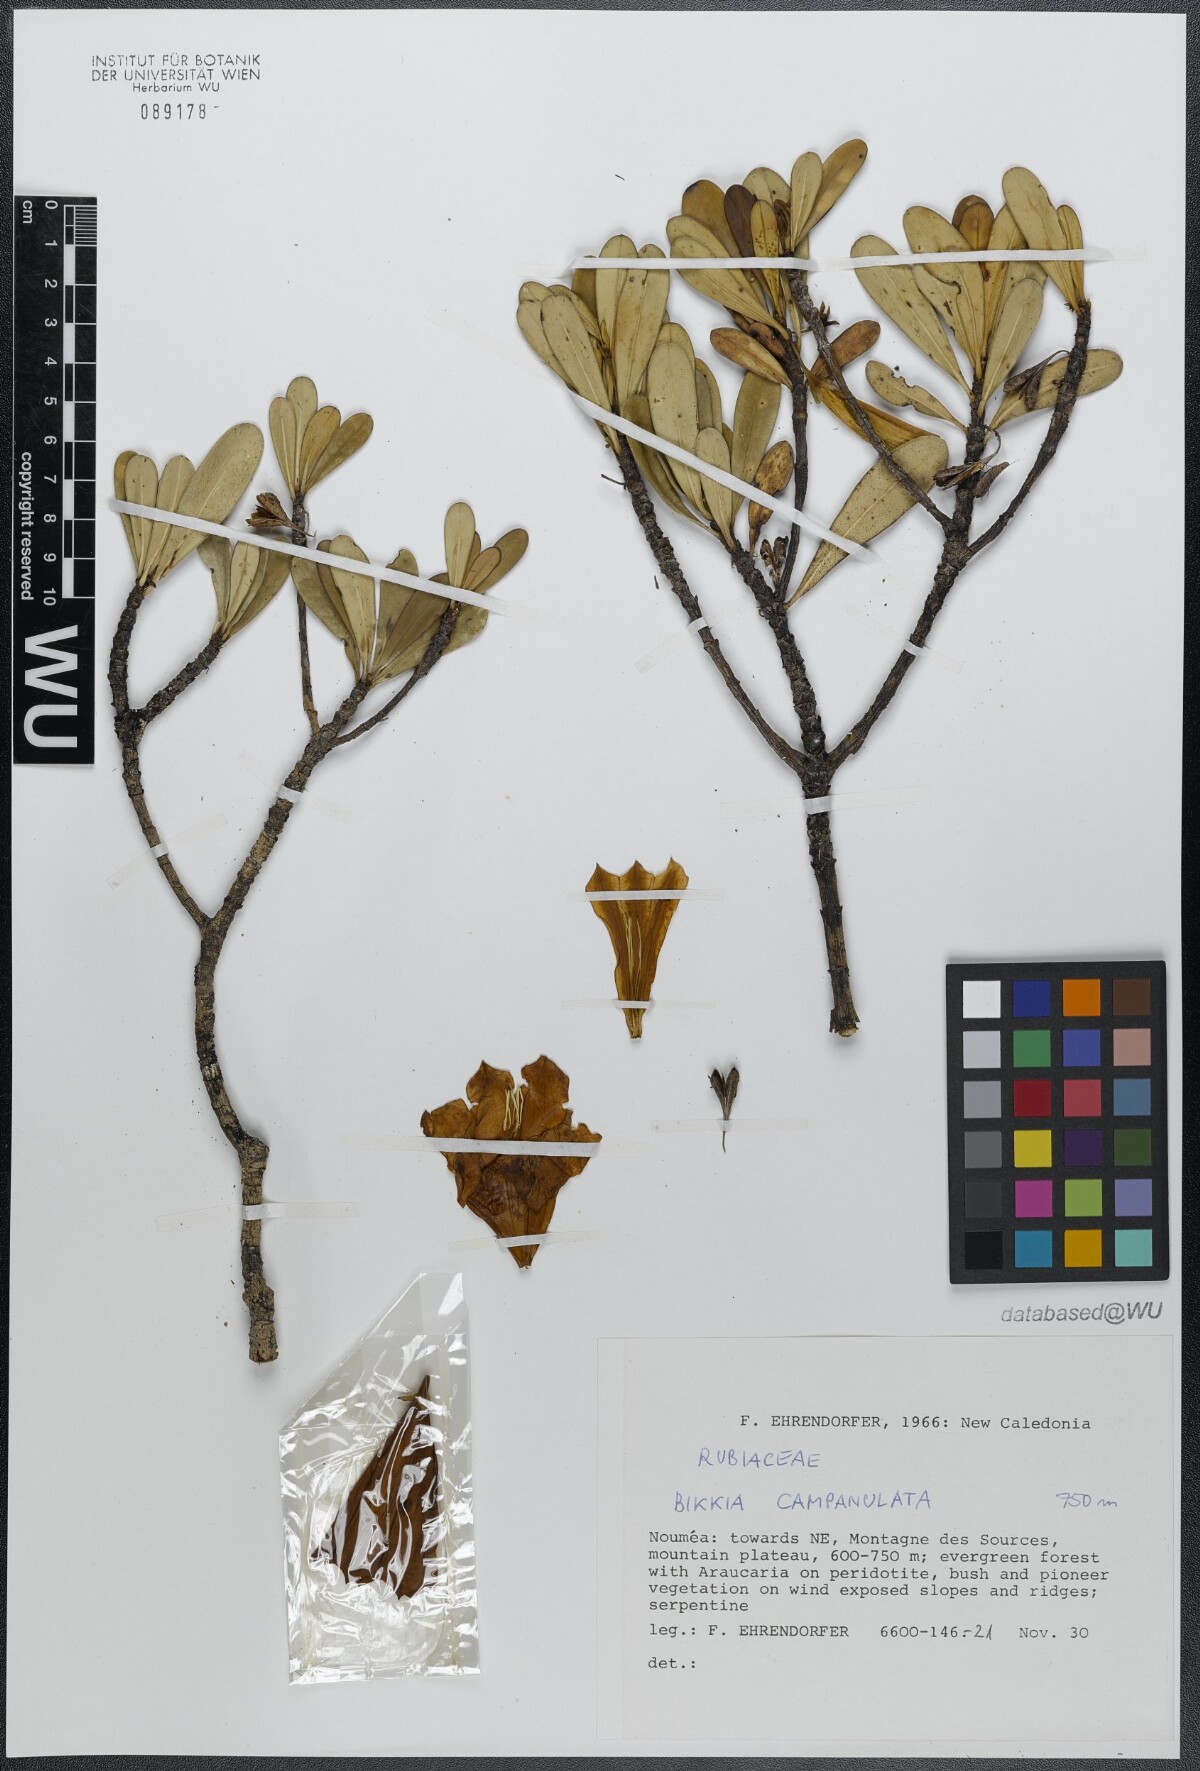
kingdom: Plantae
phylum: Tracheophyta
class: Magnoliopsida
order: Gentianales
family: Rubiaceae
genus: Thiollierea
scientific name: Thiollierea campanulata
